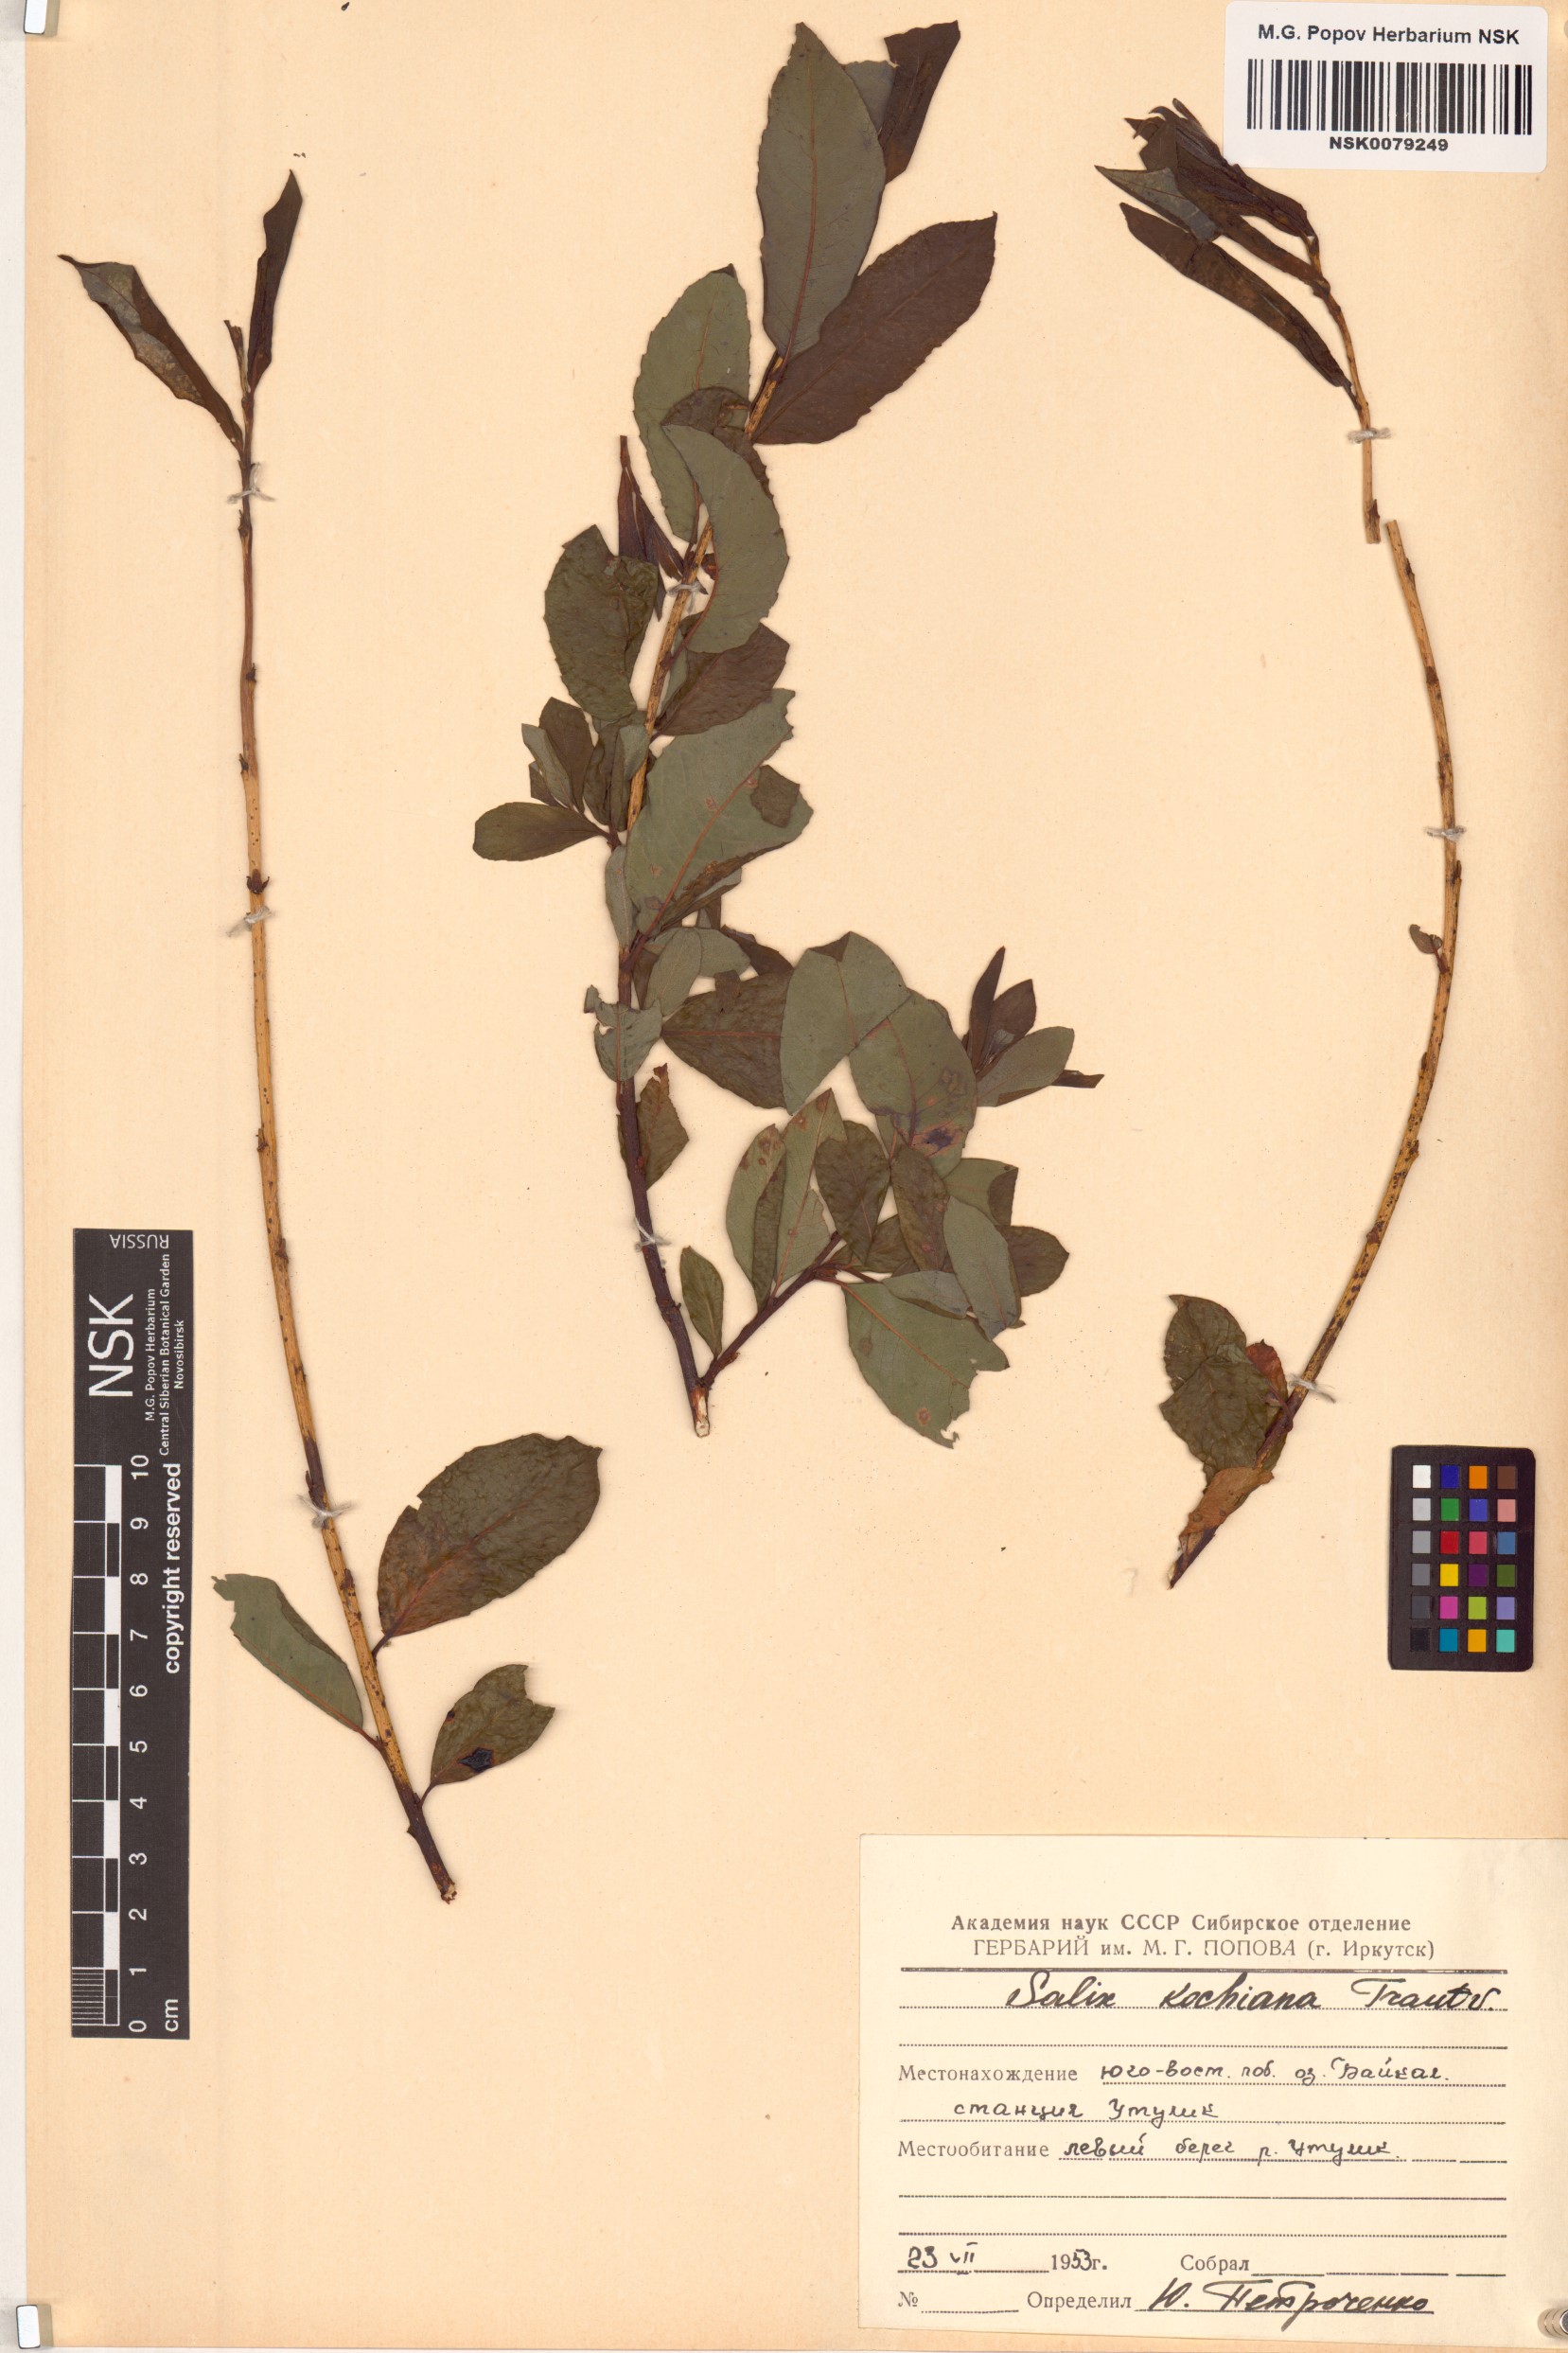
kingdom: Plantae
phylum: Tracheophyta
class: Magnoliopsida
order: Malpighiales
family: Salicaceae
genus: Salix
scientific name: Salix kochiana
